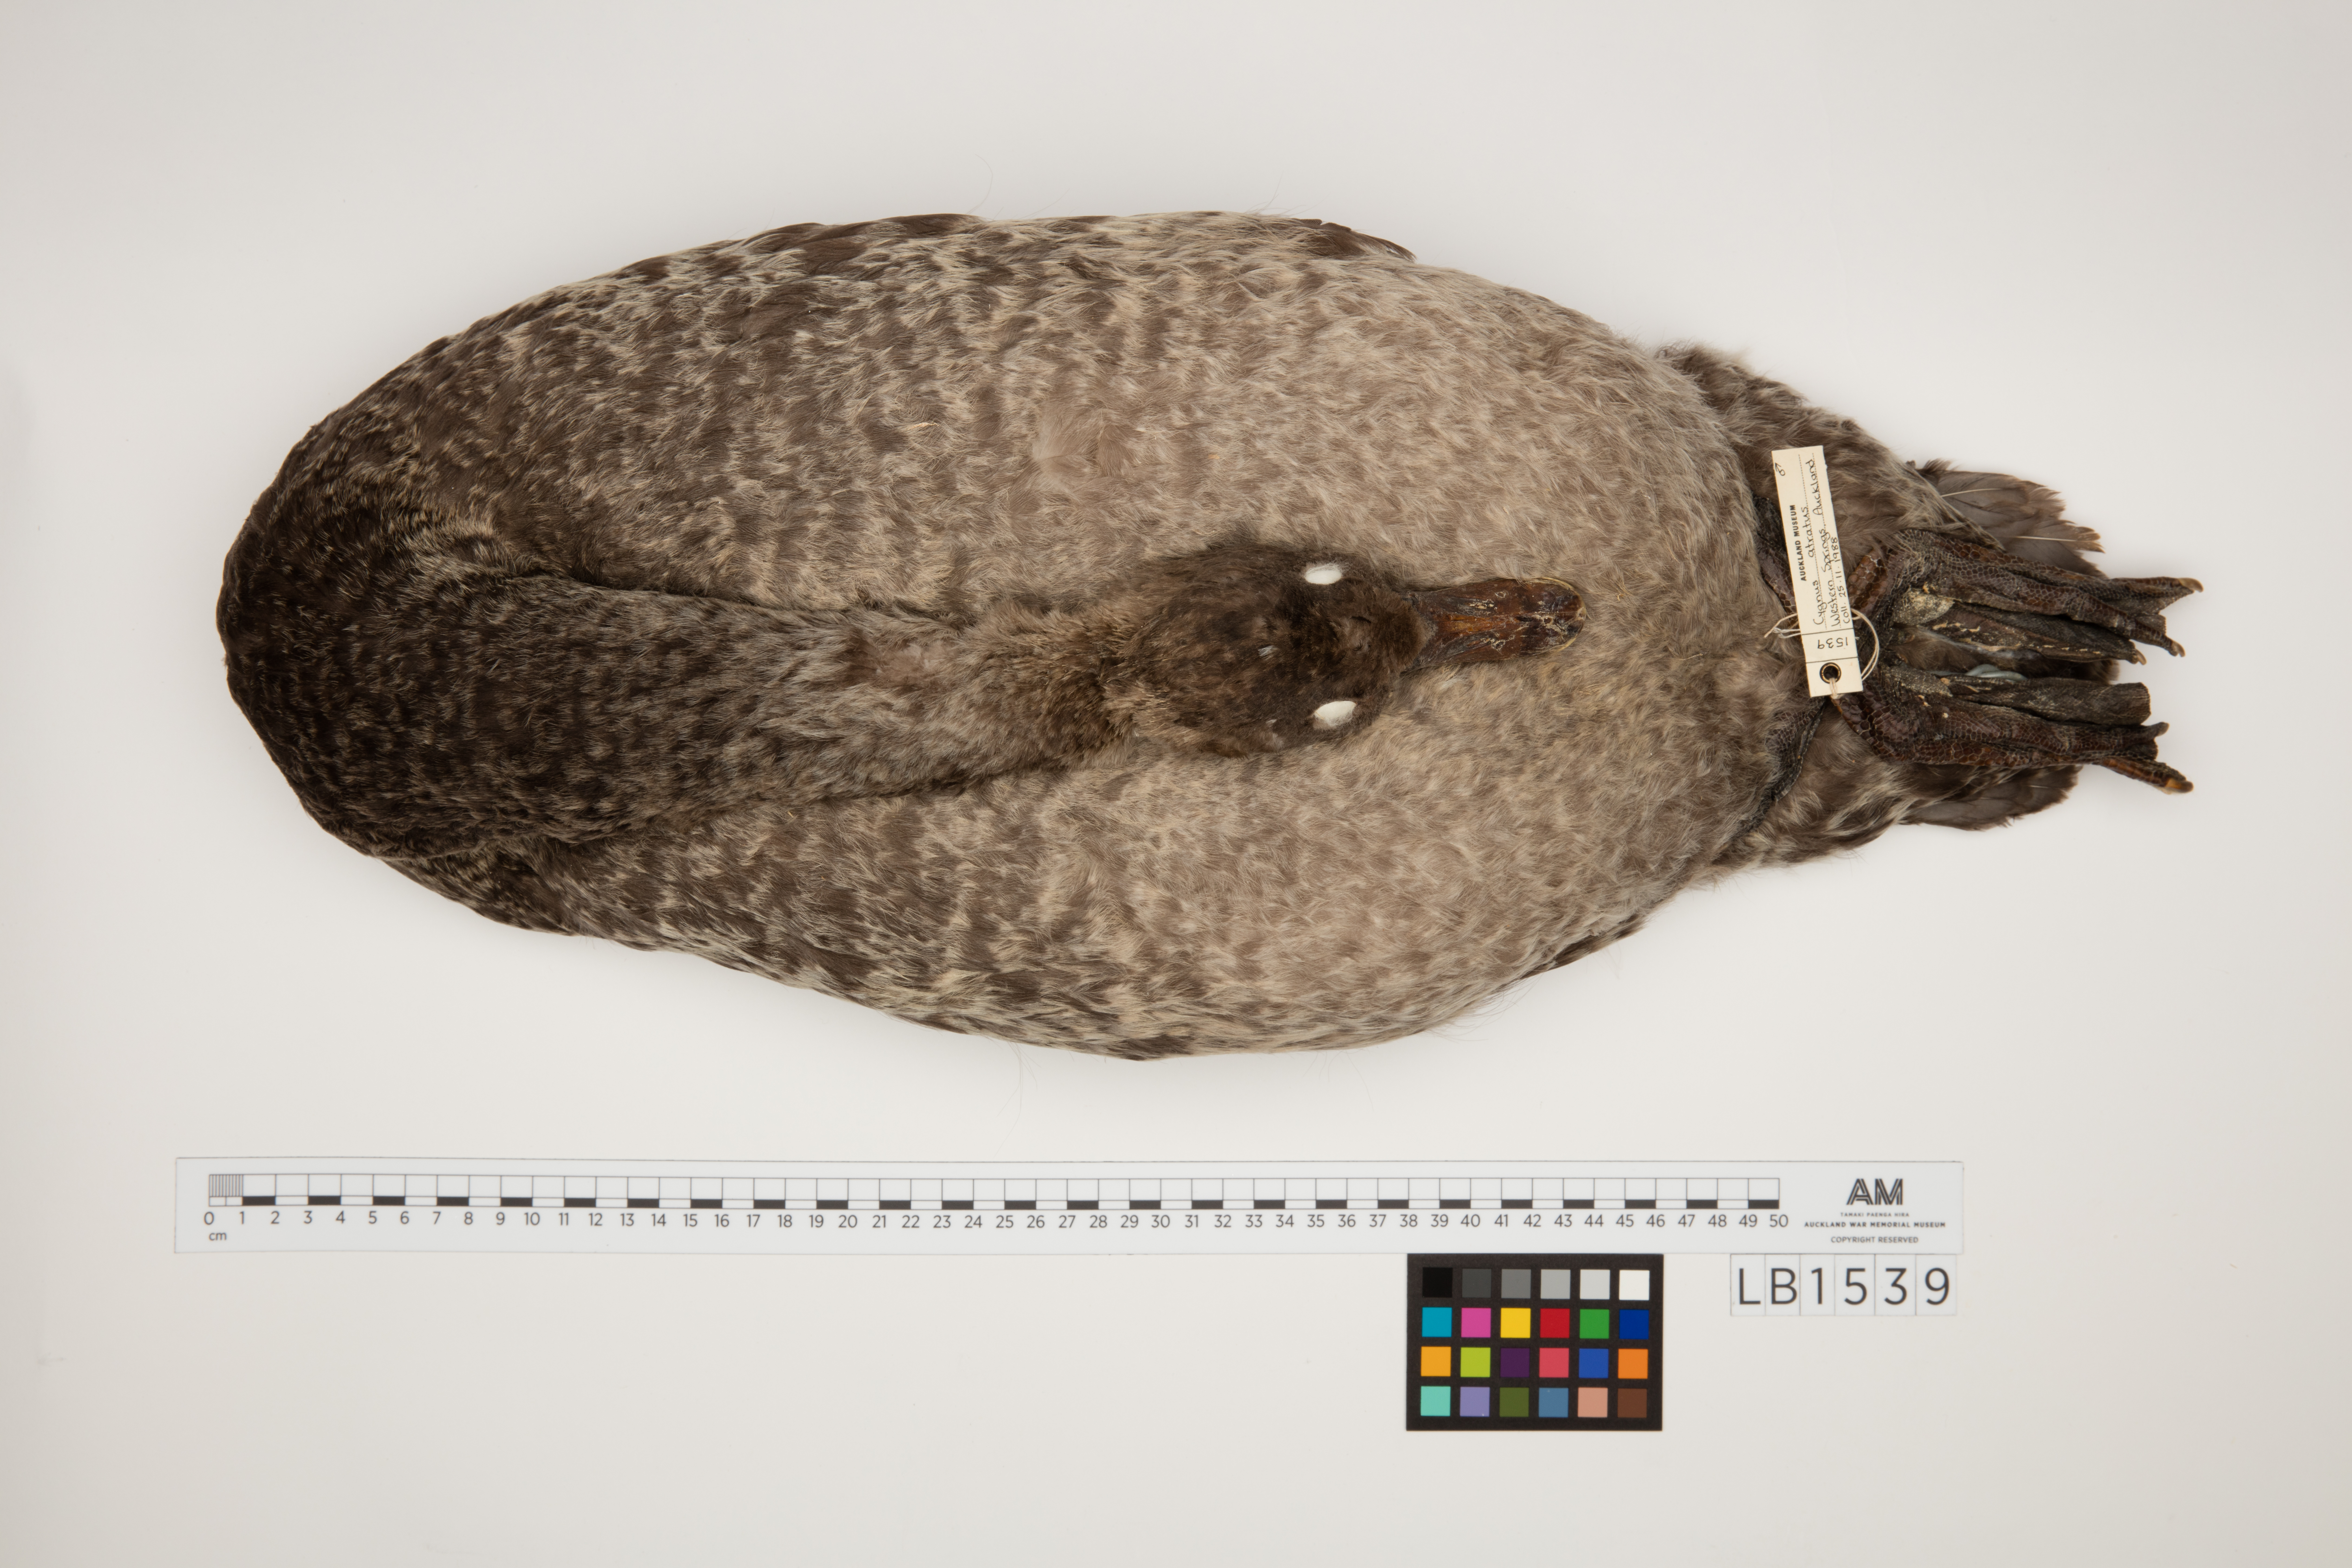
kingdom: Animalia
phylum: Chordata
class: Aves
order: Anseriformes
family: Anatidae
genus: Cygnus
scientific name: Cygnus atratus
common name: Black swan
